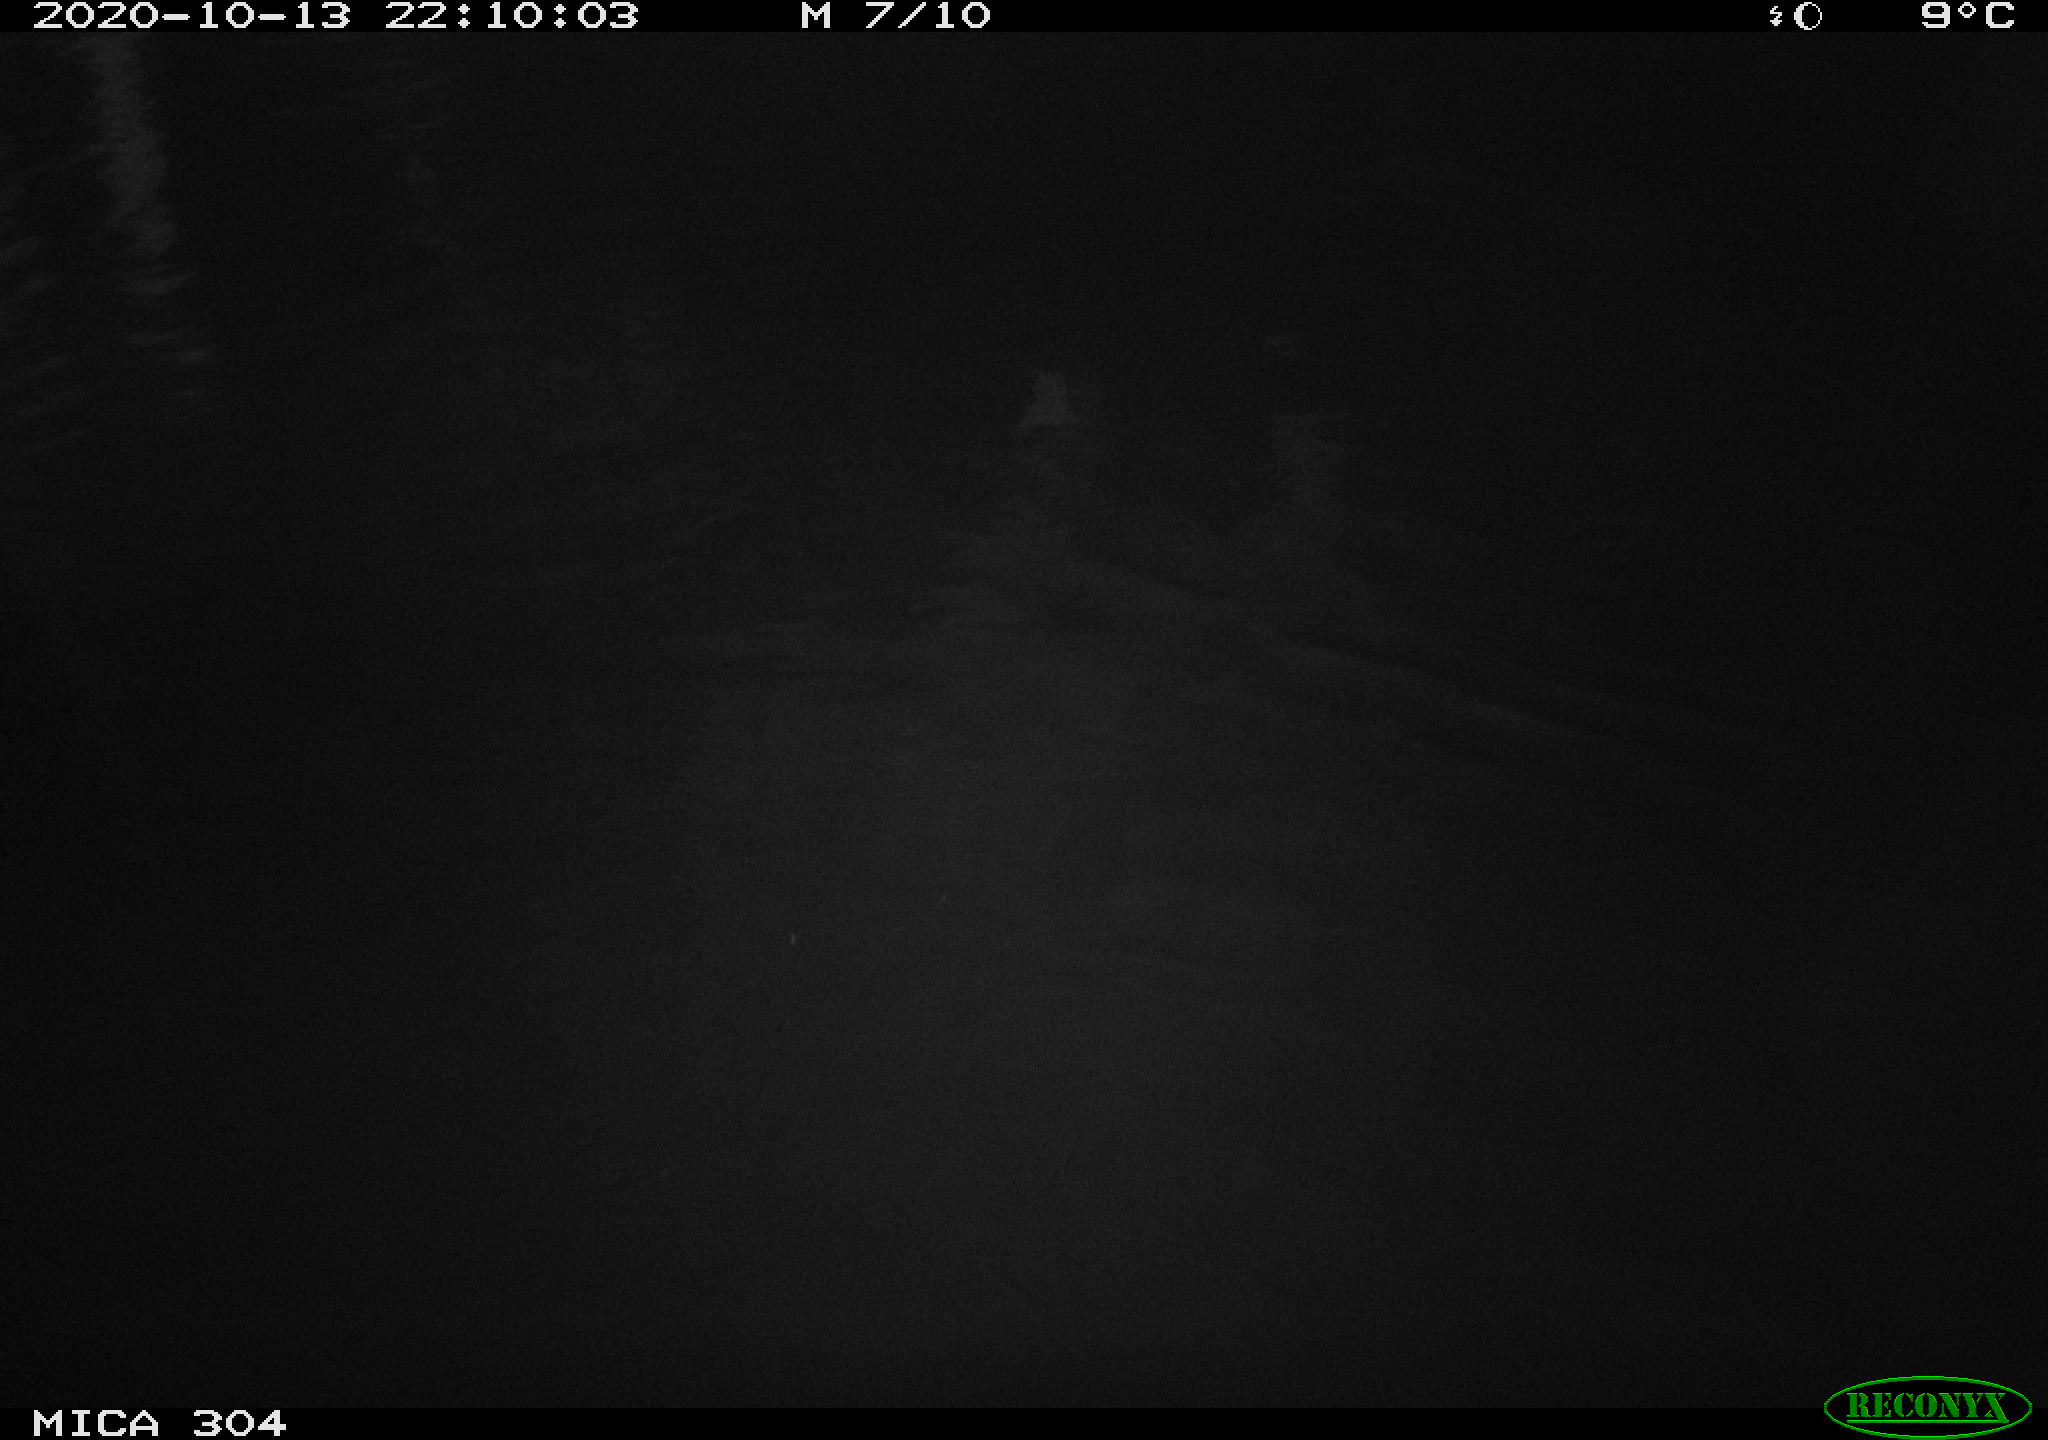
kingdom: Animalia
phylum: Chordata
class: Mammalia
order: Rodentia
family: Muridae
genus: Rattus
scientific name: Rattus norvegicus
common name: Brown rat
